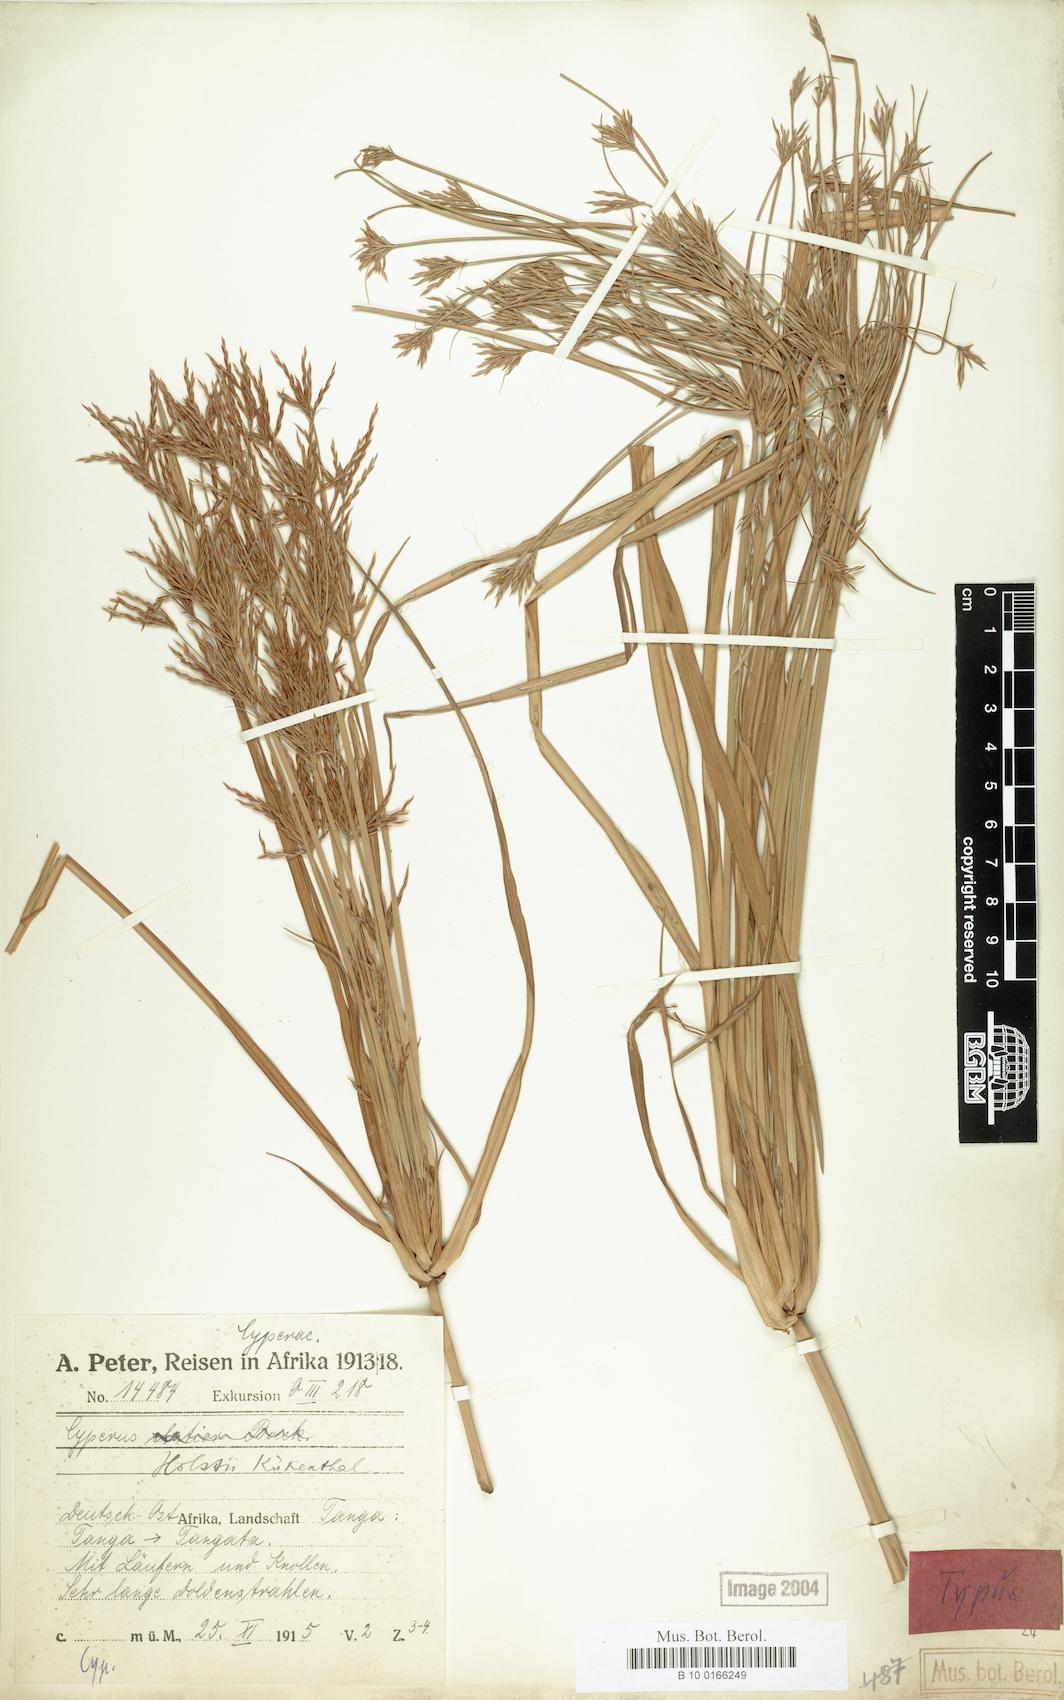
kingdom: Plantae
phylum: Tracheophyta
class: Liliopsida
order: Poales
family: Cyperaceae
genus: Cyperus
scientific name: Cyperus holstii
